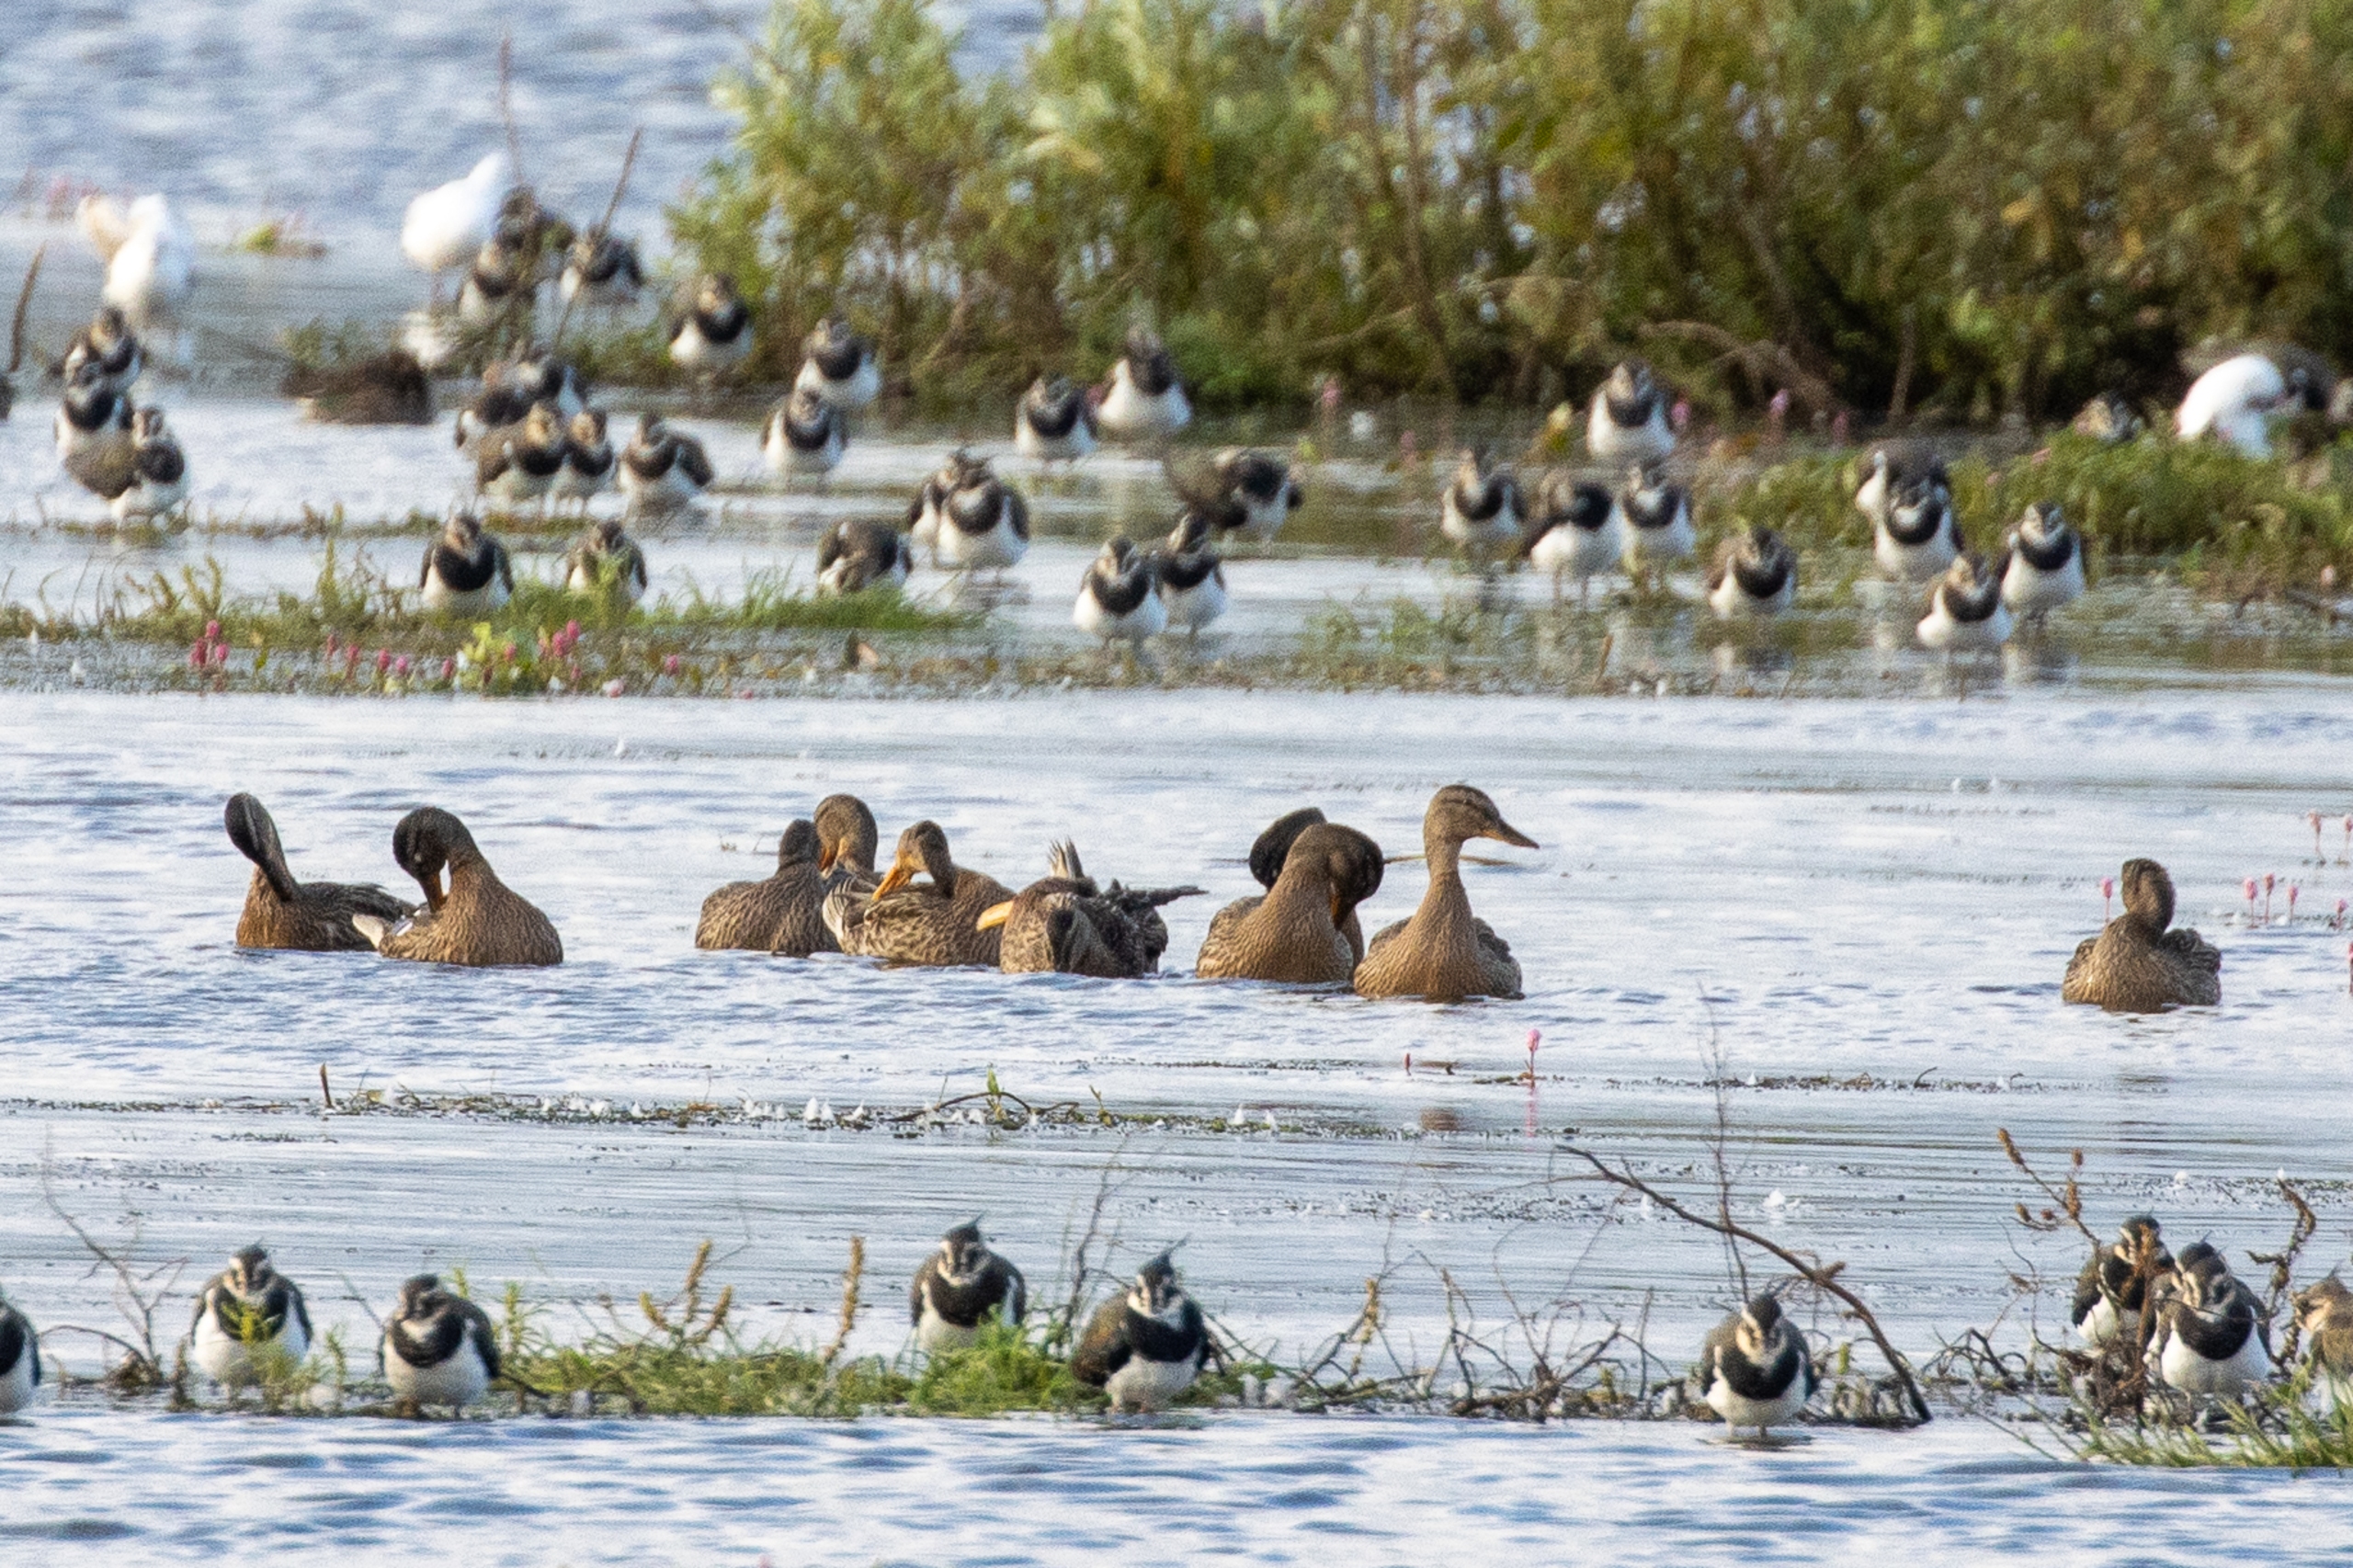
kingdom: Animalia
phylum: Chordata
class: Aves
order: Anseriformes
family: Anatidae
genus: Anas
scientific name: Anas platyrhynchos
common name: Gråand
